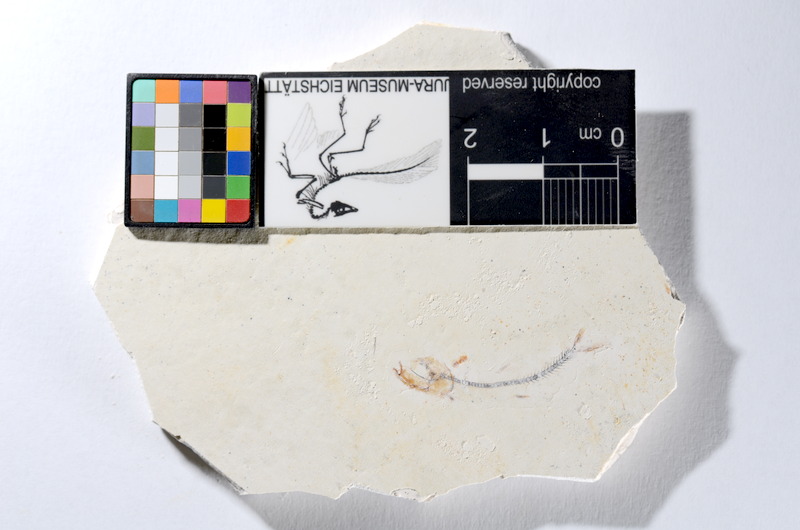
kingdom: Animalia
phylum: Chordata
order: Salmoniformes
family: Orthogonikleithridae
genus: Orthogonikleithrus
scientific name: Orthogonikleithrus hoelli
